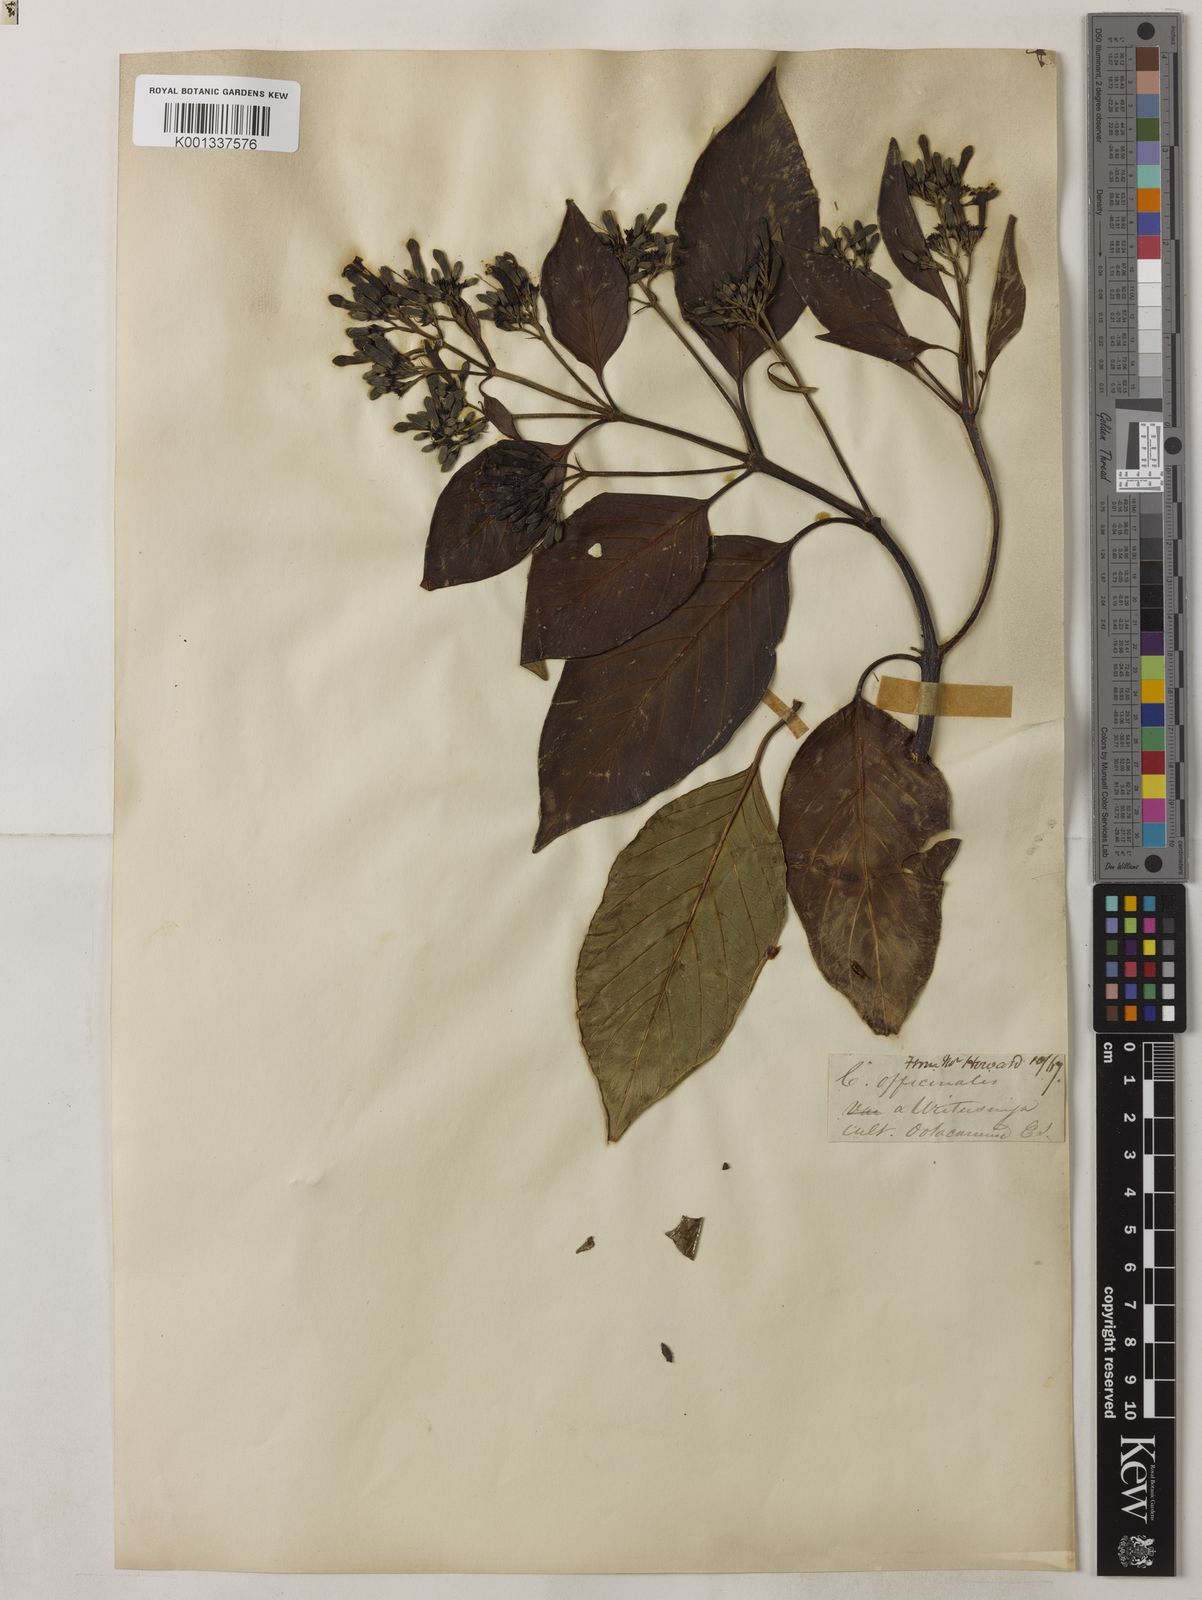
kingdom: Plantae
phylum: Tracheophyta
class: Magnoliopsida
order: Gentianales
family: Rubiaceae
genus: Cinchona
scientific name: Cinchona officinalis
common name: Lojabark
